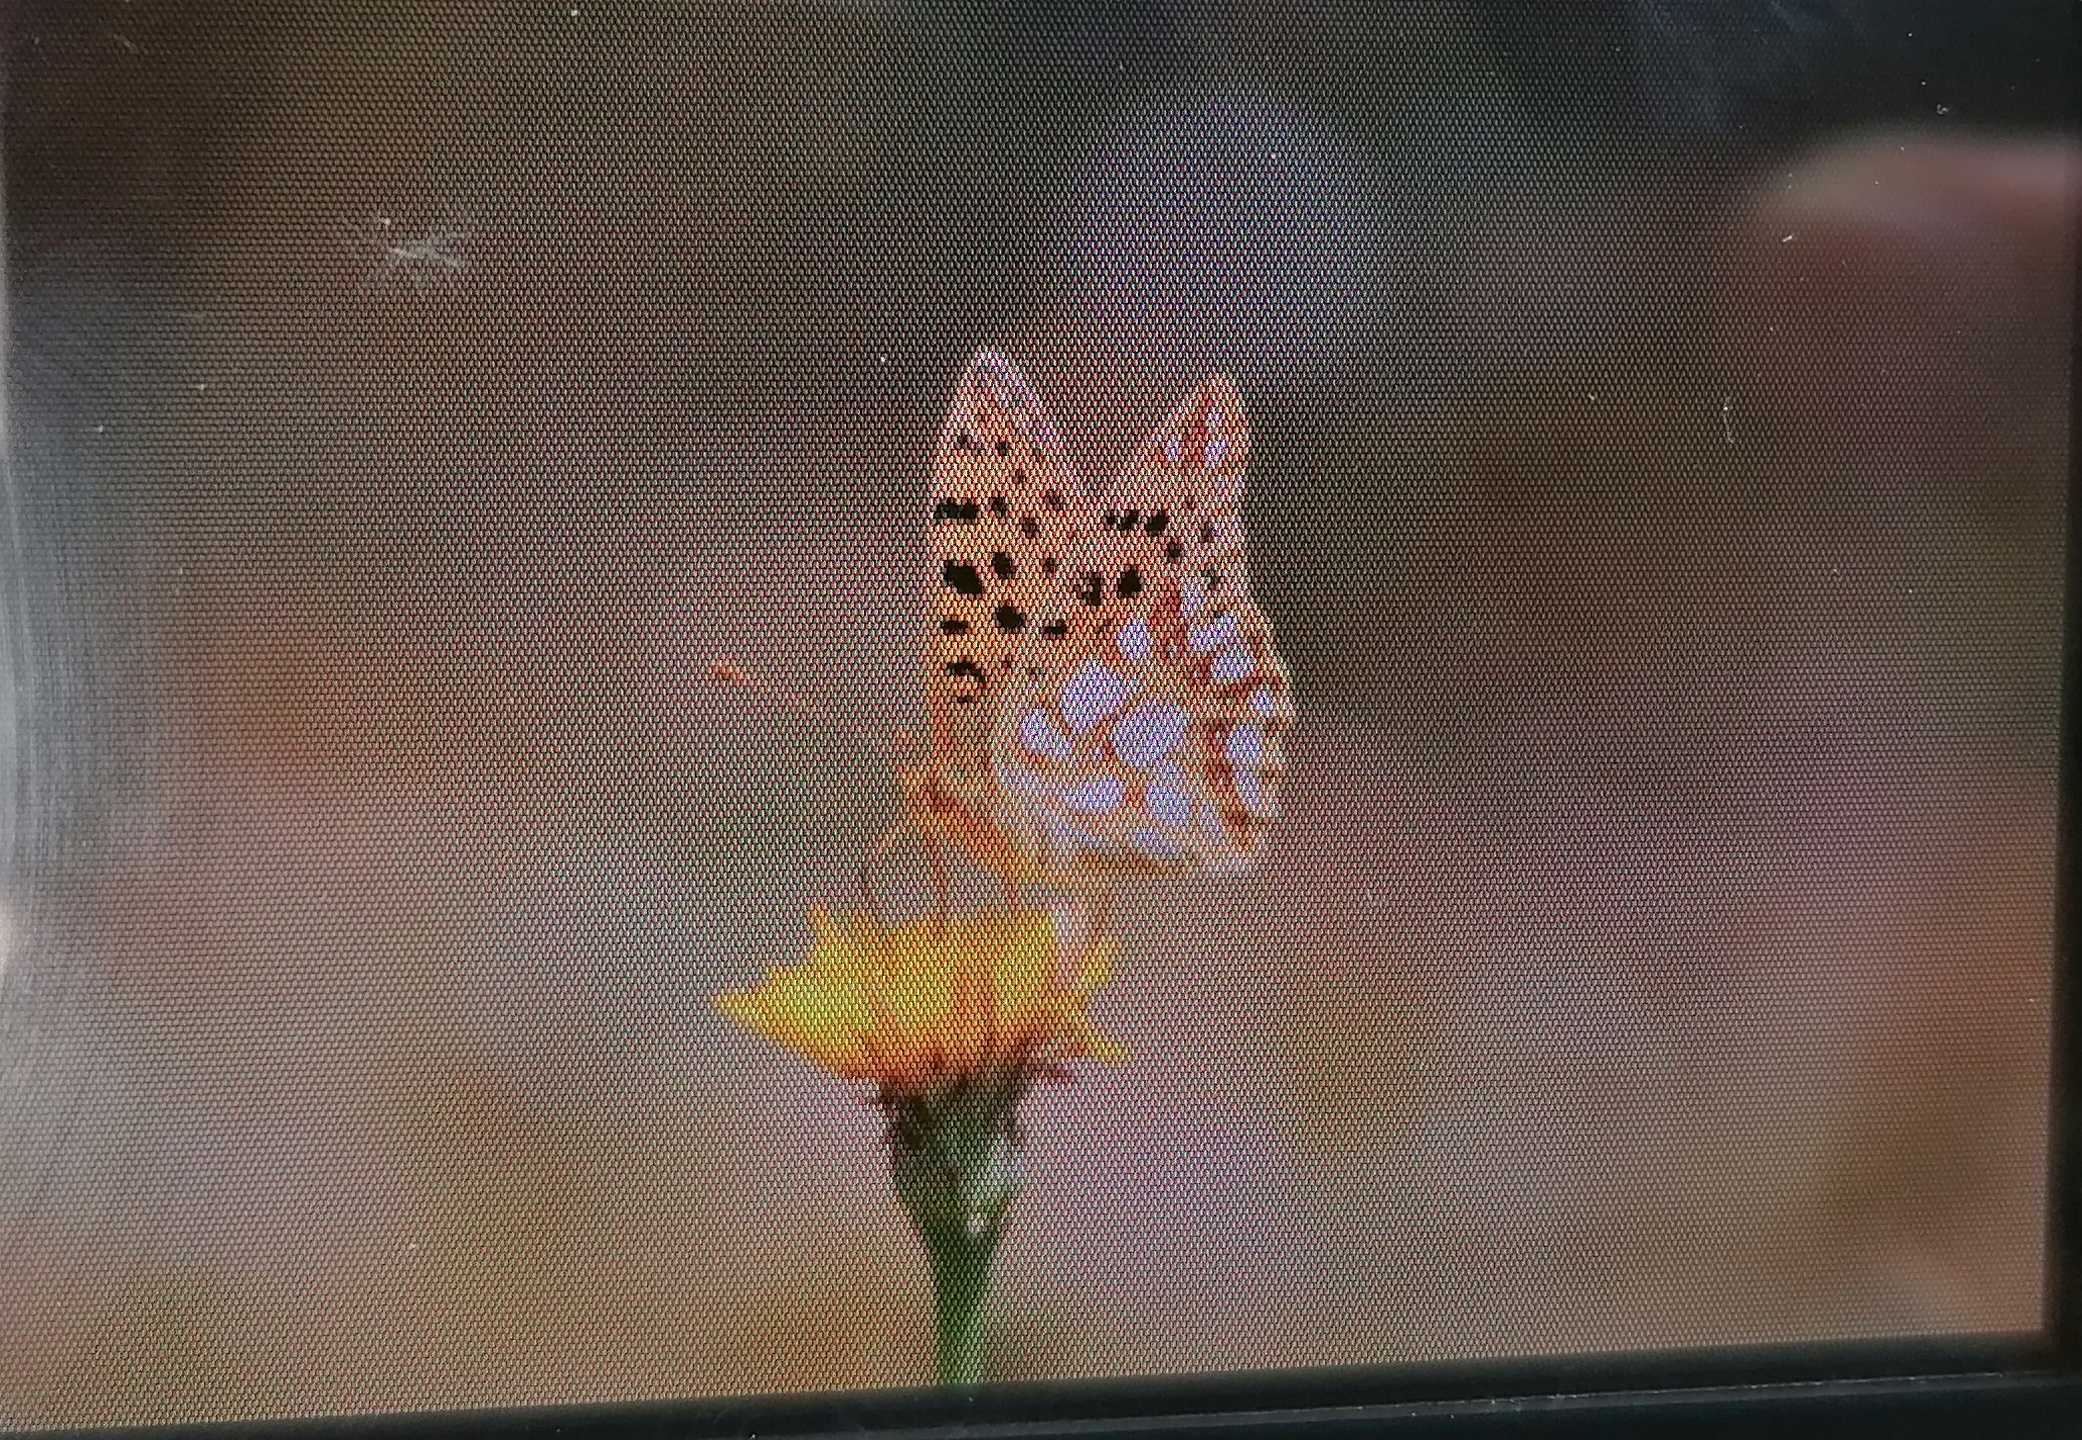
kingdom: Animalia
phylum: Arthropoda
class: Insecta
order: Lepidoptera
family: Nymphalidae
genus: Issoria
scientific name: Issoria lathonia
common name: Storplettet perlemorsommerfugl
